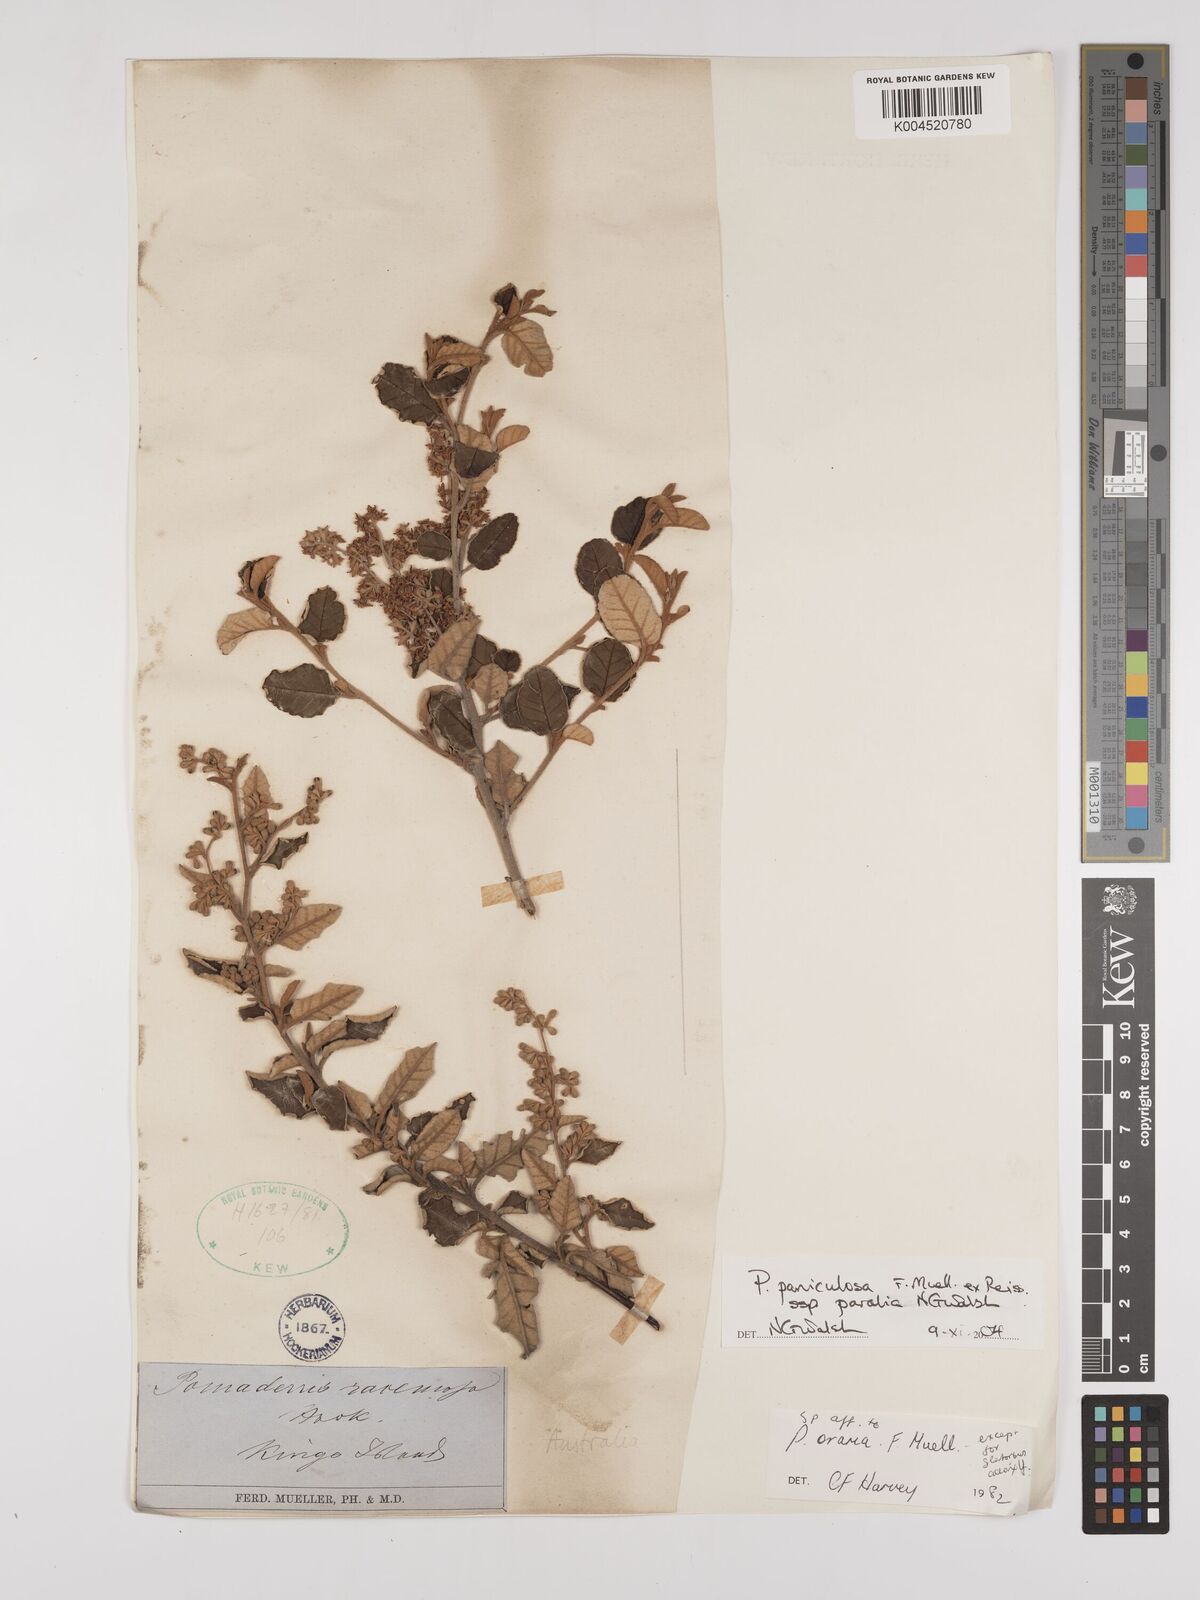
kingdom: Plantae
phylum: Tracheophyta
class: Magnoliopsida
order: Rosales
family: Rhamnaceae
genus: Pomaderris
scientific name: Pomaderris paniculosa
